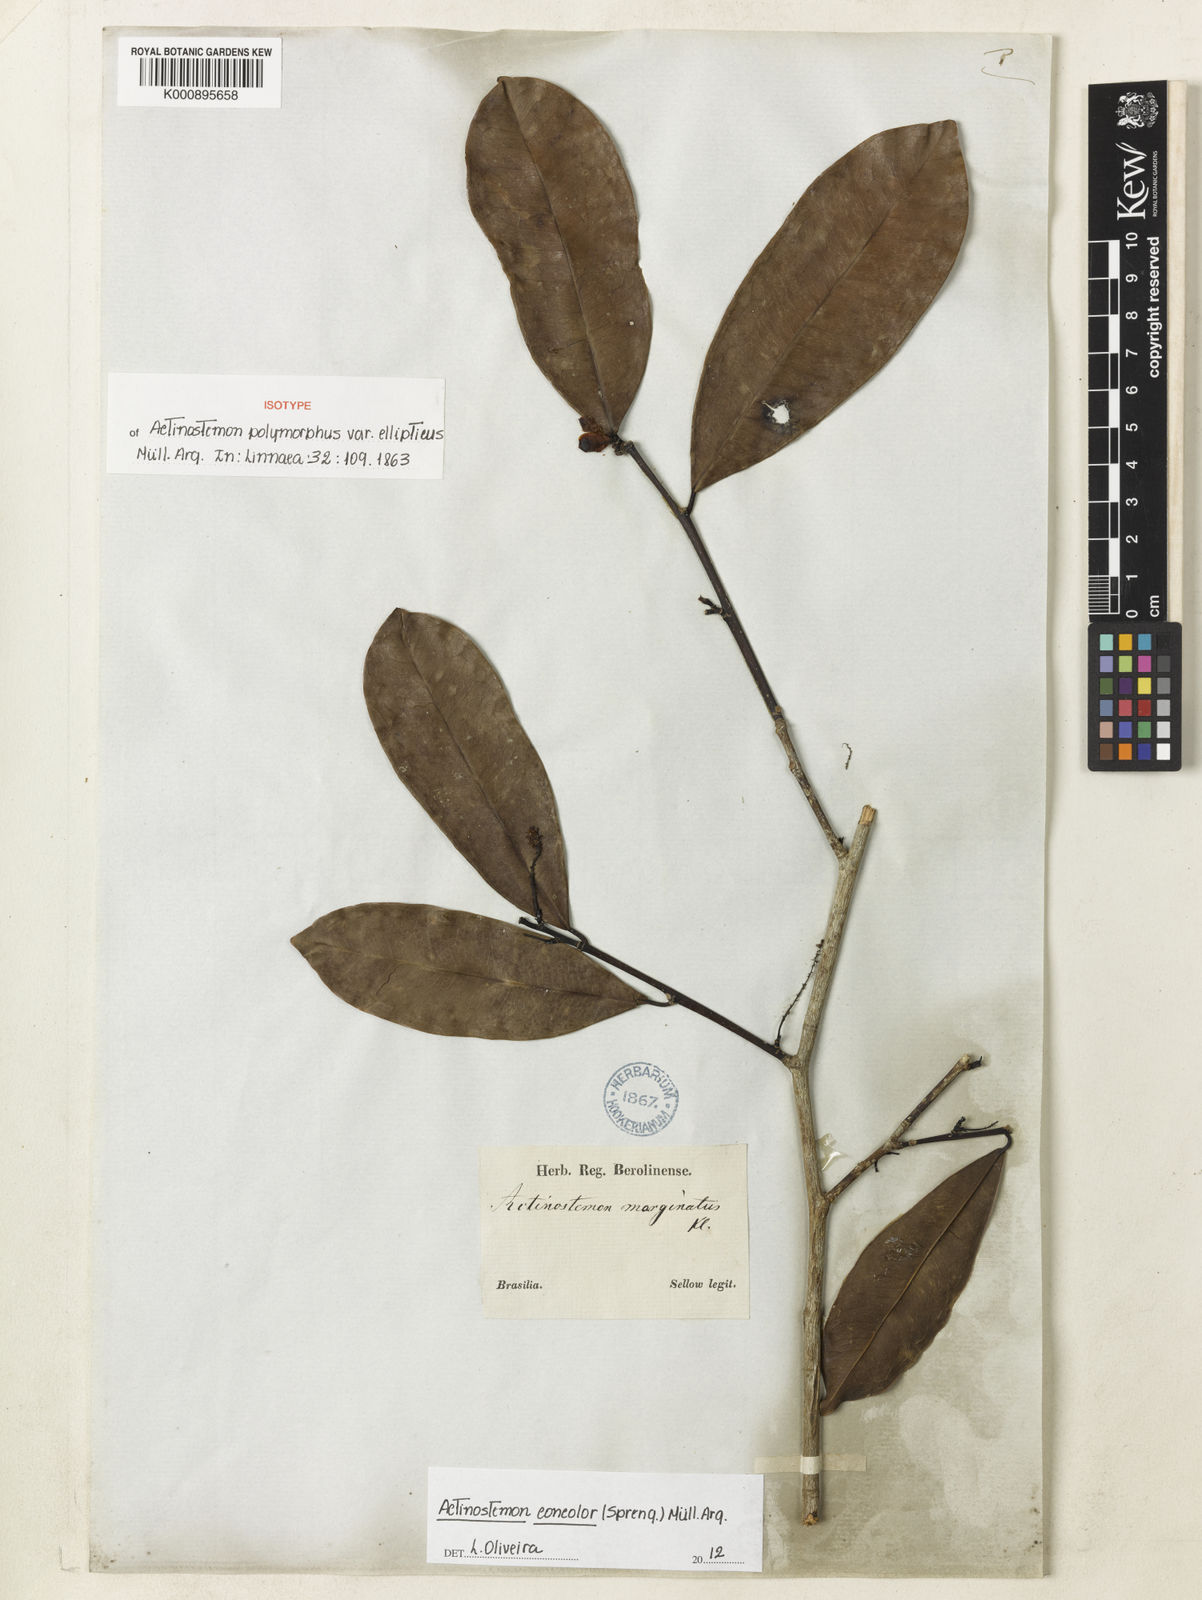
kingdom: Plantae
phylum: Tracheophyta
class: Magnoliopsida
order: Malpighiales
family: Euphorbiaceae
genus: Actinostemon
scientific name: Actinostemon
